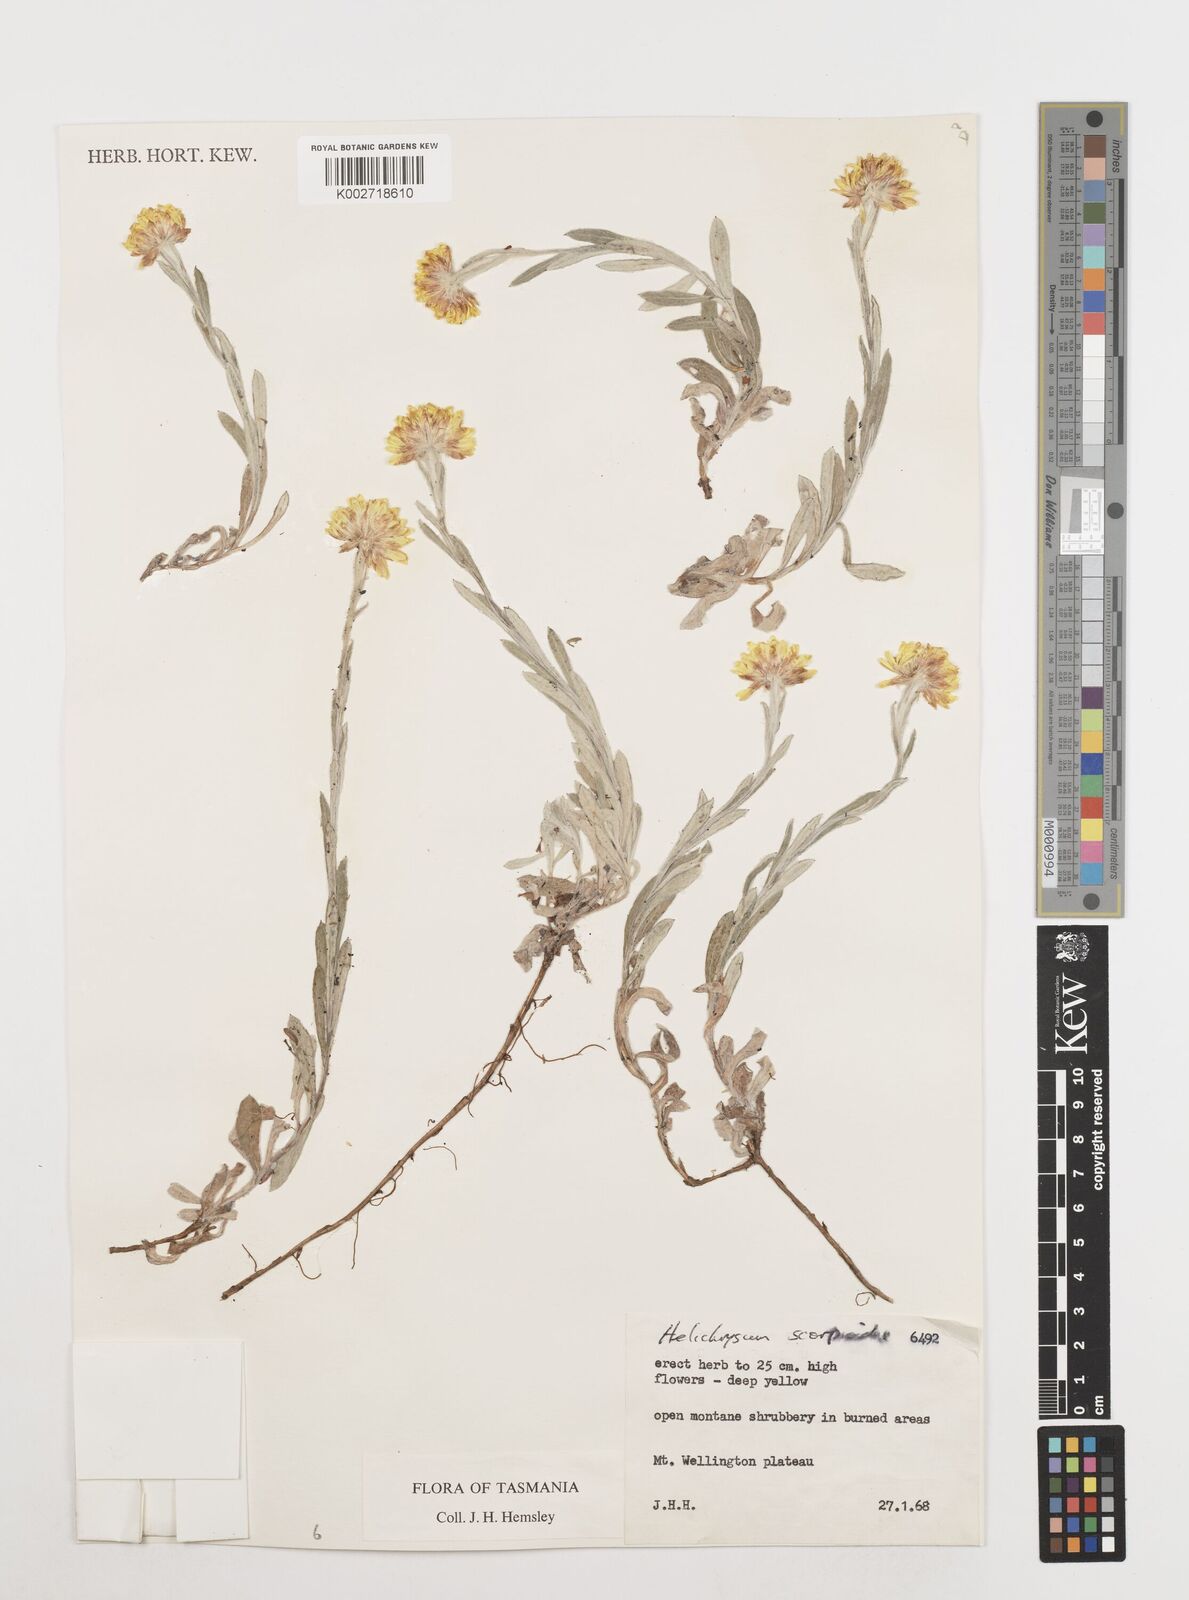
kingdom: Plantae
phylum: Tracheophyta
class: Magnoliopsida
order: Asterales
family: Asteraceae
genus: Coronidium
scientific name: Coronidium scorpioides
